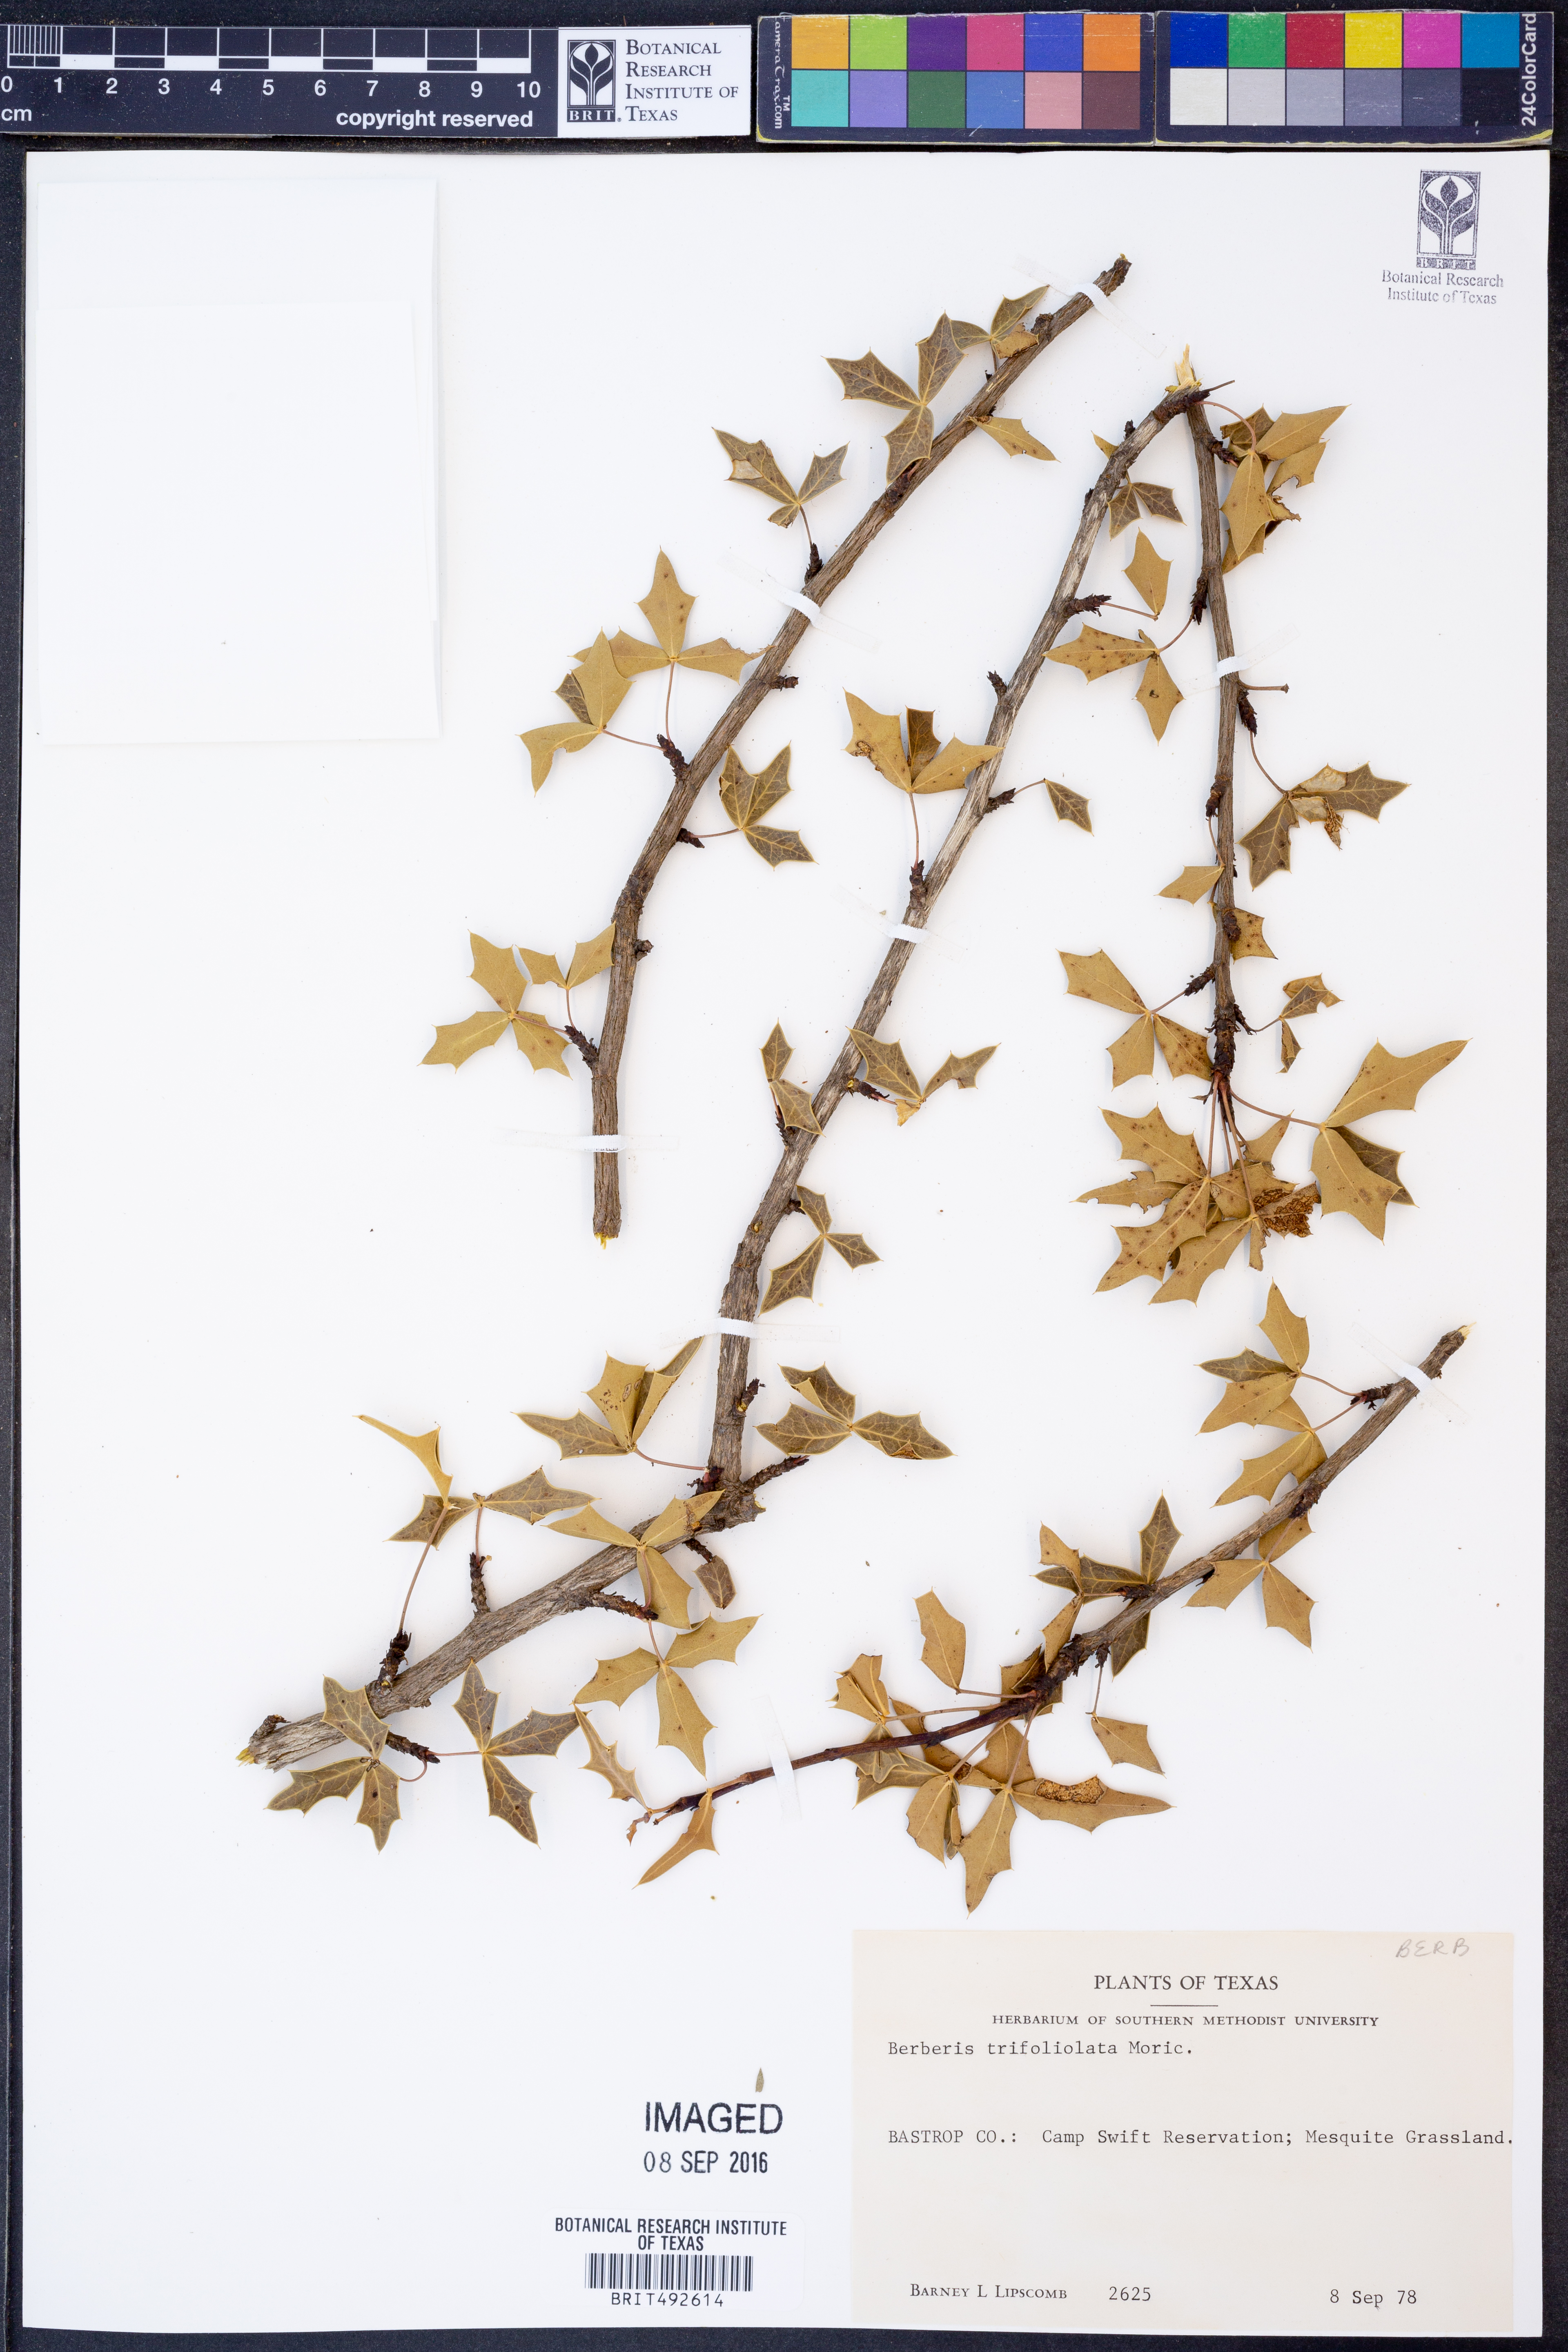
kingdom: Plantae
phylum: Tracheophyta
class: Magnoliopsida
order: Ranunculales
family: Berberidaceae
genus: Alloberberis
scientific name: Alloberberis trifoliolata
